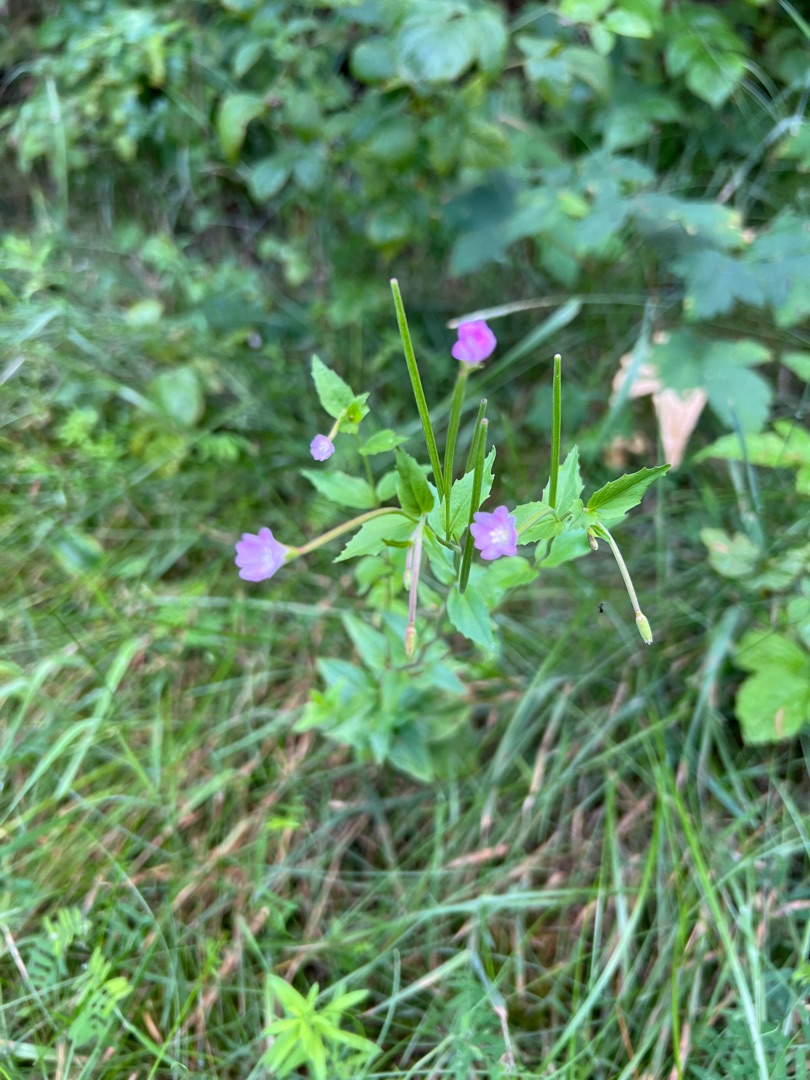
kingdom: Plantae
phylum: Tracheophyta
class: Magnoliopsida
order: Myrtales
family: Onagraceae
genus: Epilobium
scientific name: Epilobium montanum
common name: Glat dueurt
